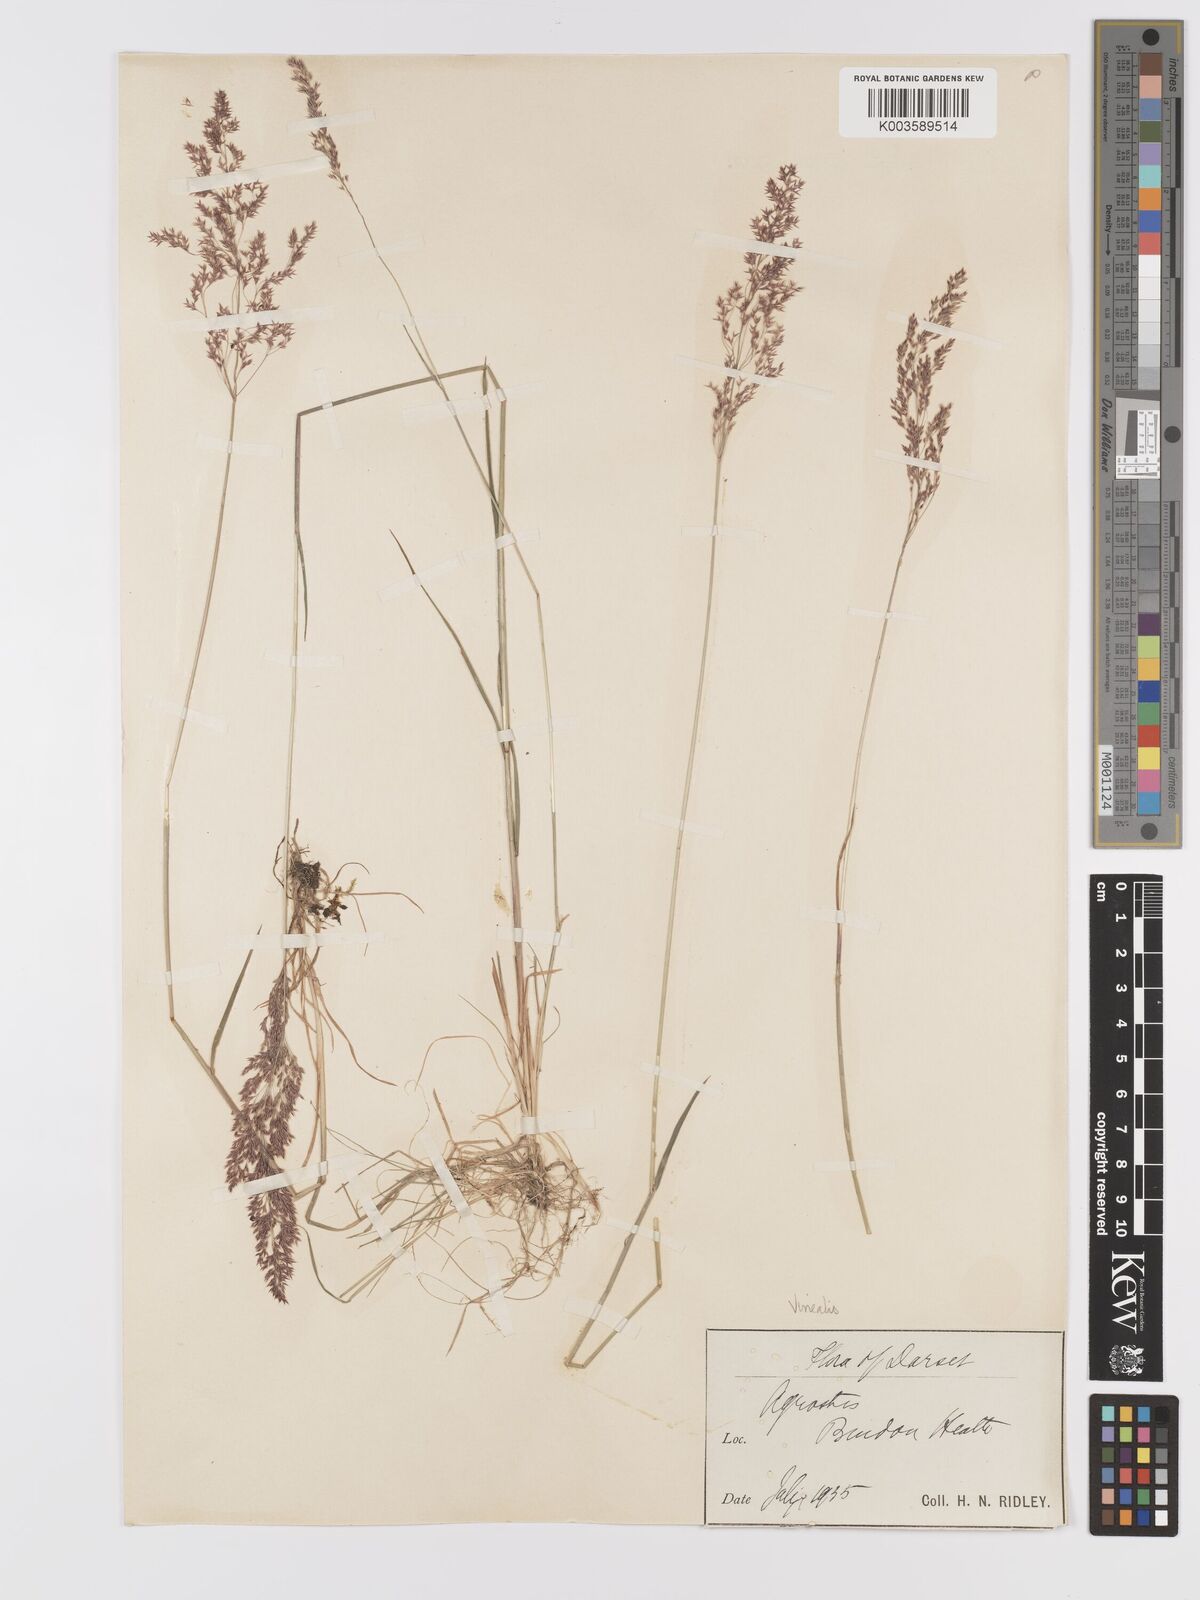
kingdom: Plantae
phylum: Tracheophyta
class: Liliopsida
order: Poales
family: Poaceae
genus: Agrostis
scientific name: Agrostis
